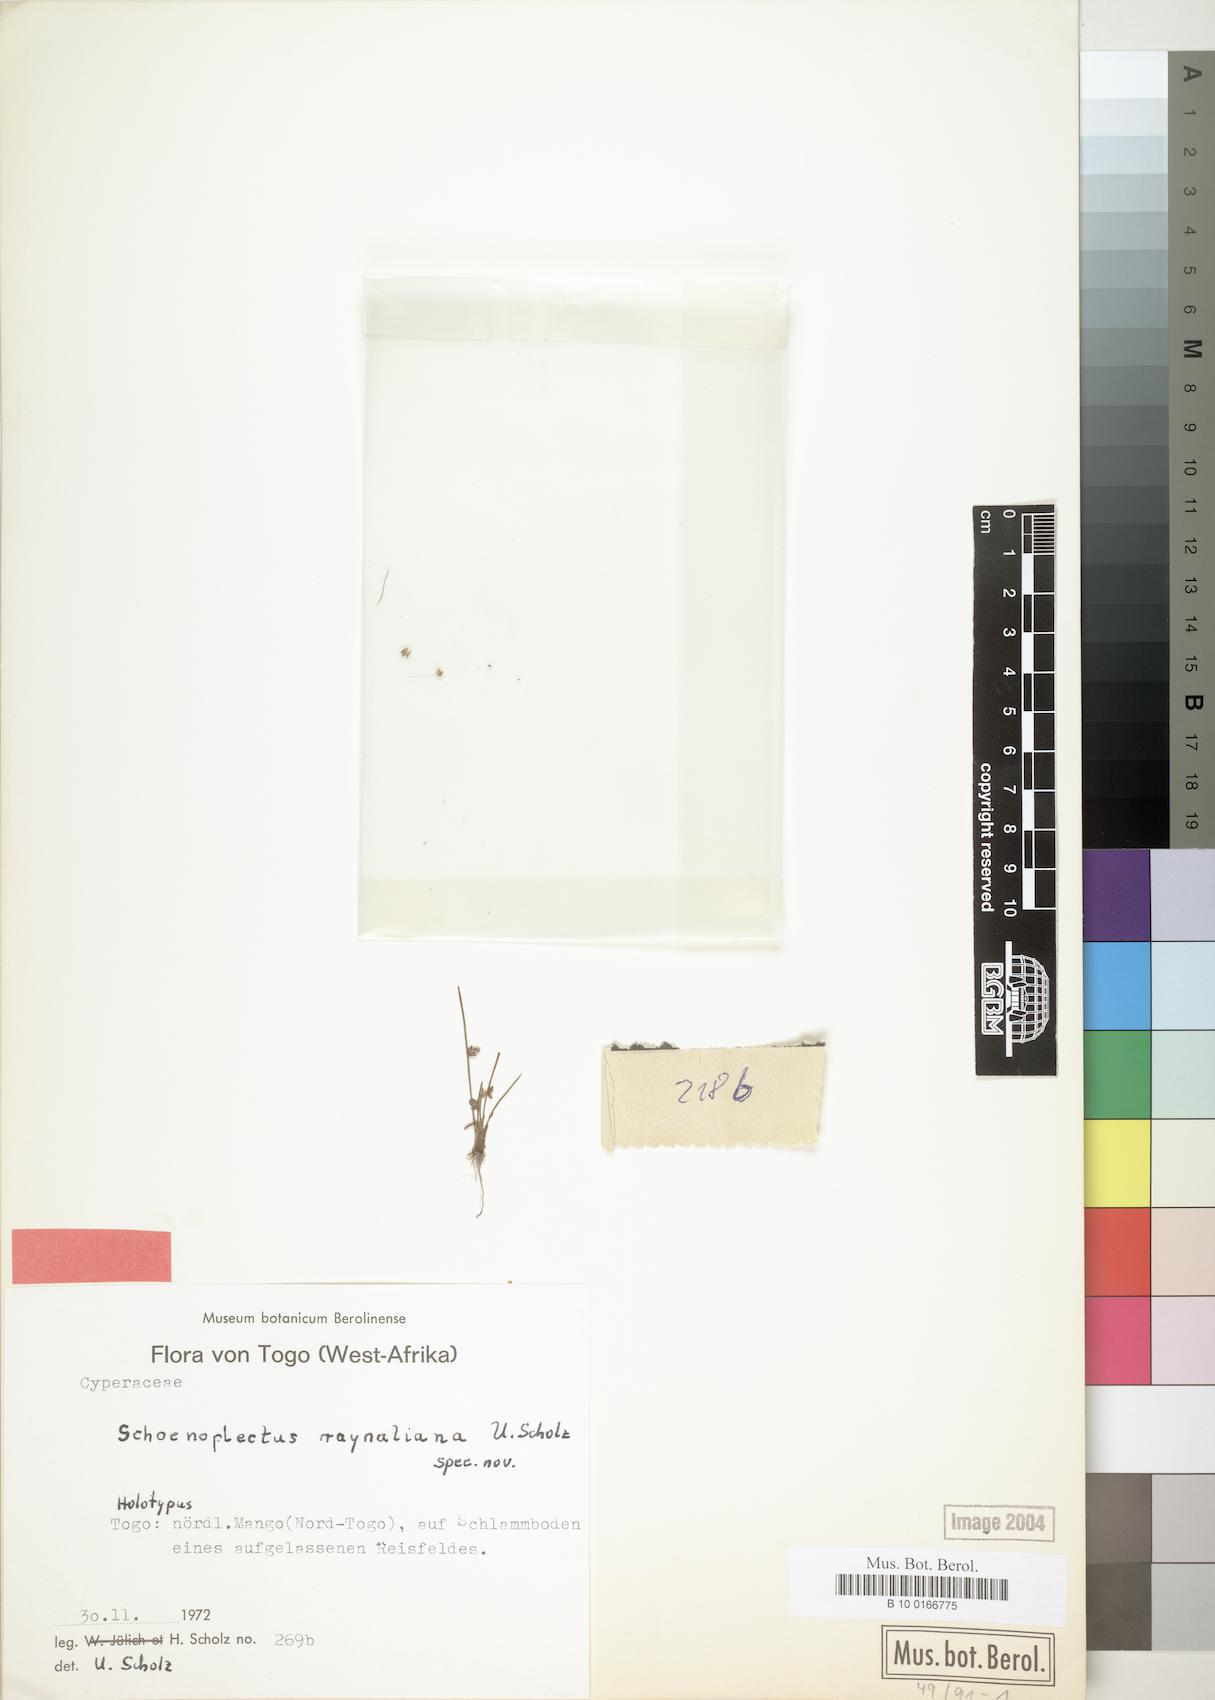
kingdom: Plantae
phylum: Tracheophyta
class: Liliopsida
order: Poales
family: Cyperaceae
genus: Schoenoplectiella
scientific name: Schoenoplectiella proxima
